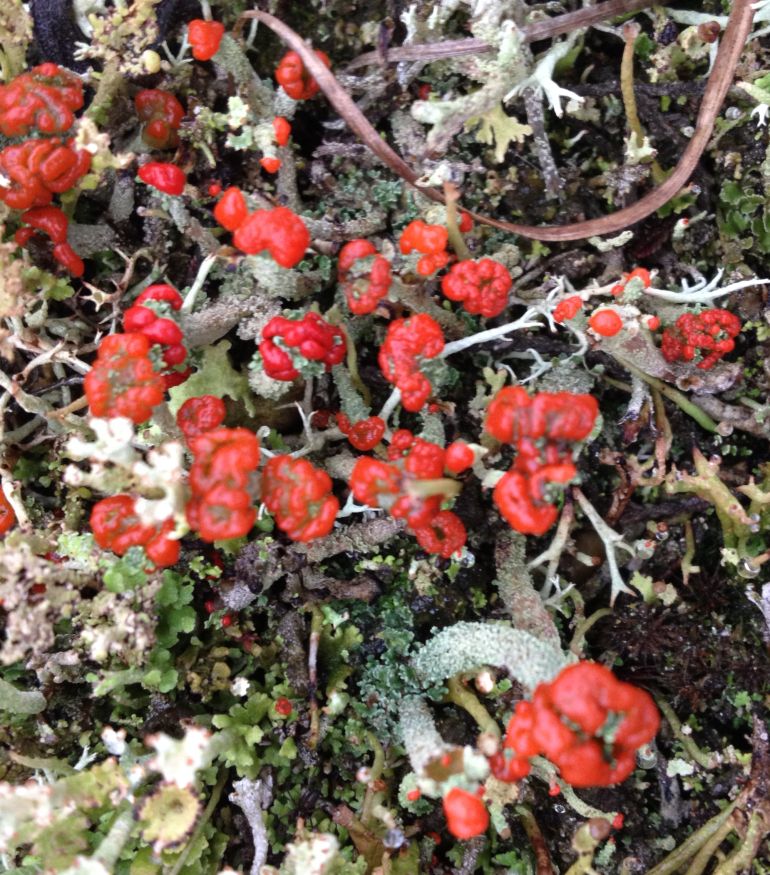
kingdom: Fungi
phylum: Ascomycota
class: Lecanoromycetes
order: Lecanorales
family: Cladoniaceae
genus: Cladonia
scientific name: Cladonia floerkeana
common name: lakrød bægerlav
